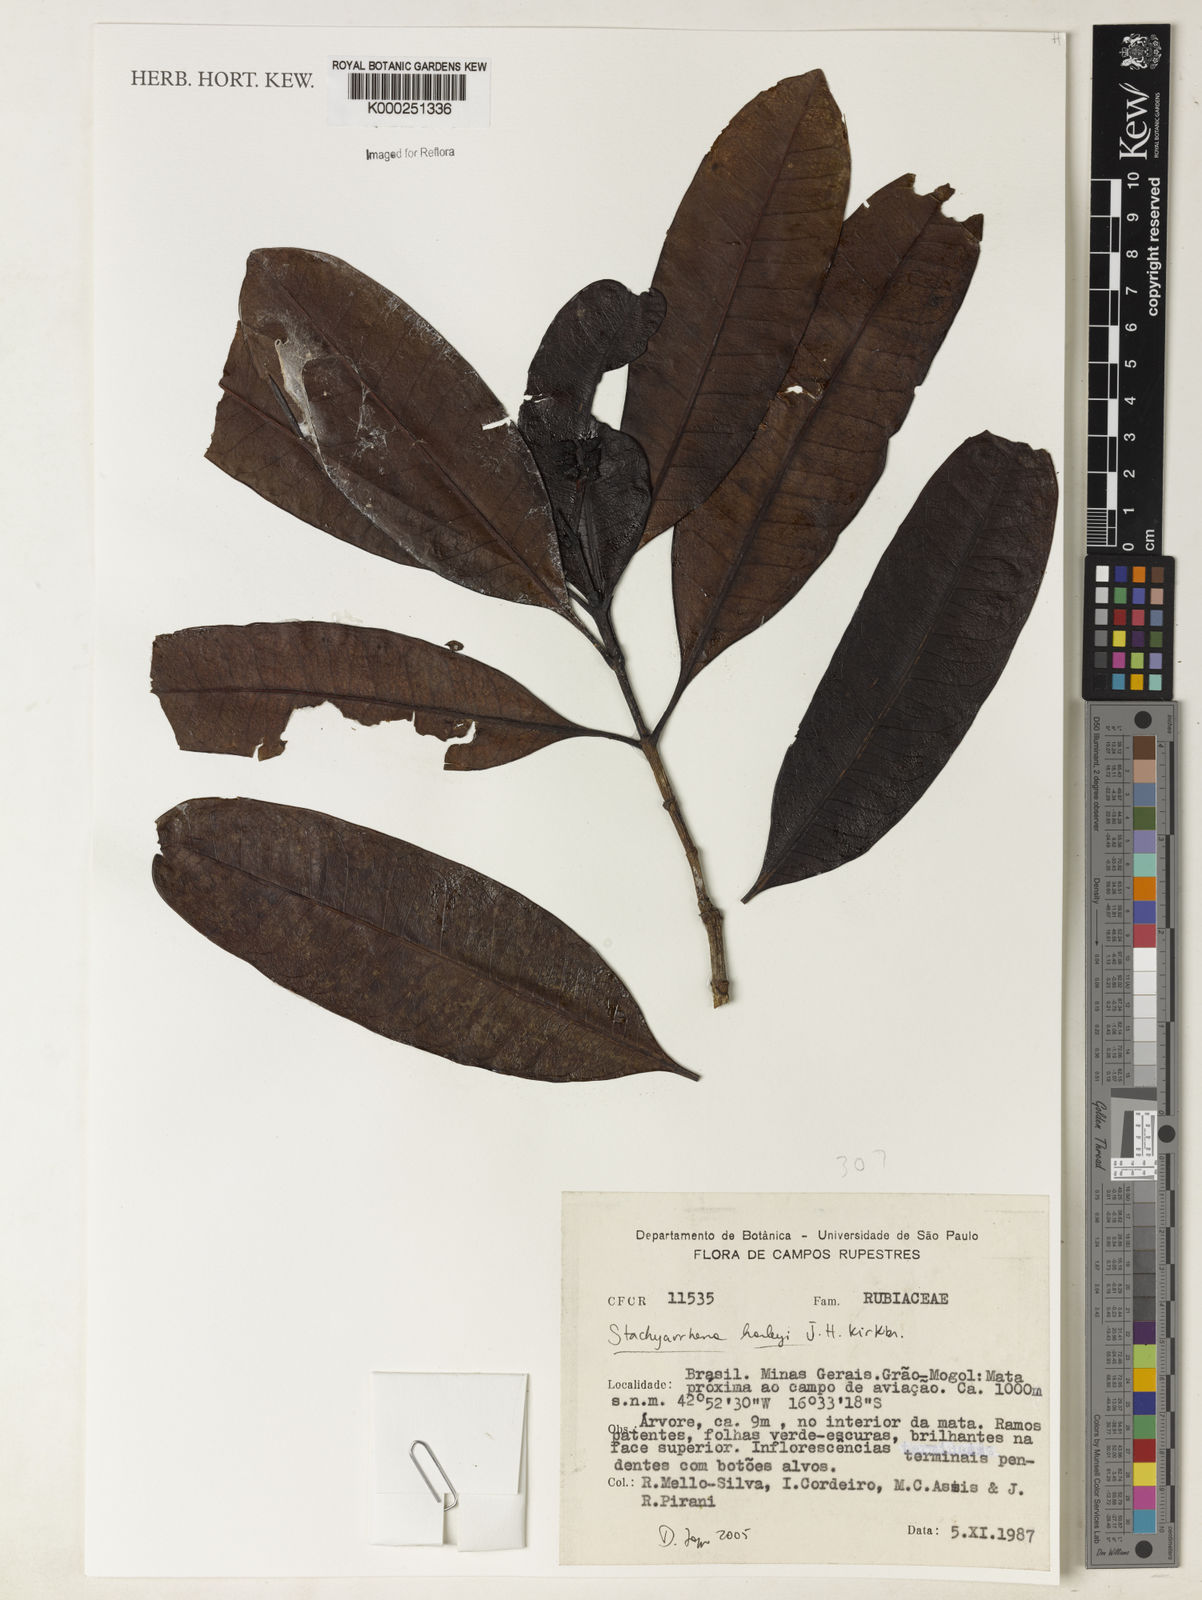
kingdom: Plantae
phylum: Tracheophyta
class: Magnoliopsida
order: Gentianales
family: Rubiaceae
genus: Stachyarrhena
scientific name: Stachyarrhena harleyi
